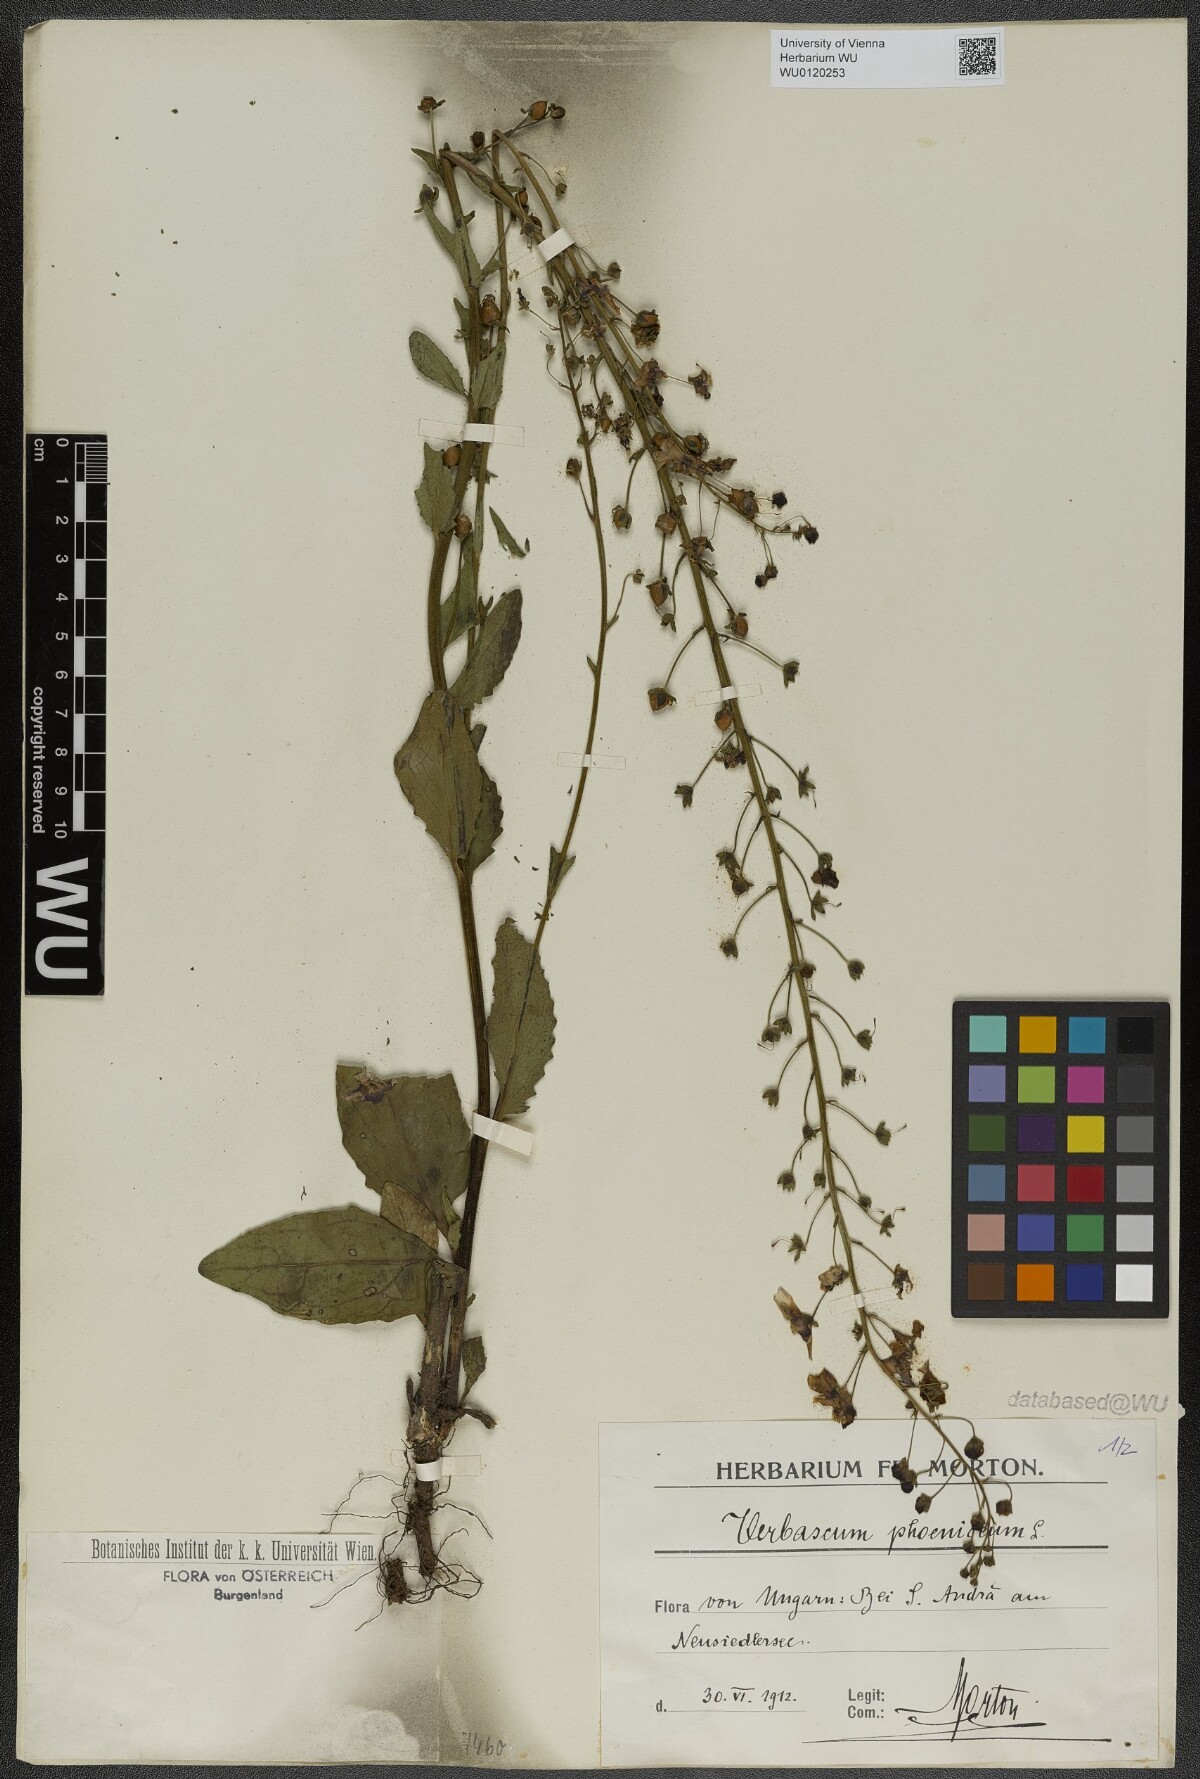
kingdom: Plantae
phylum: Tracheophyta
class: Magnoliopsida
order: Lamiales
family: Scrophulariaceae
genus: Verbascum
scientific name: Verbascum phoeniceum
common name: Purple mullein
